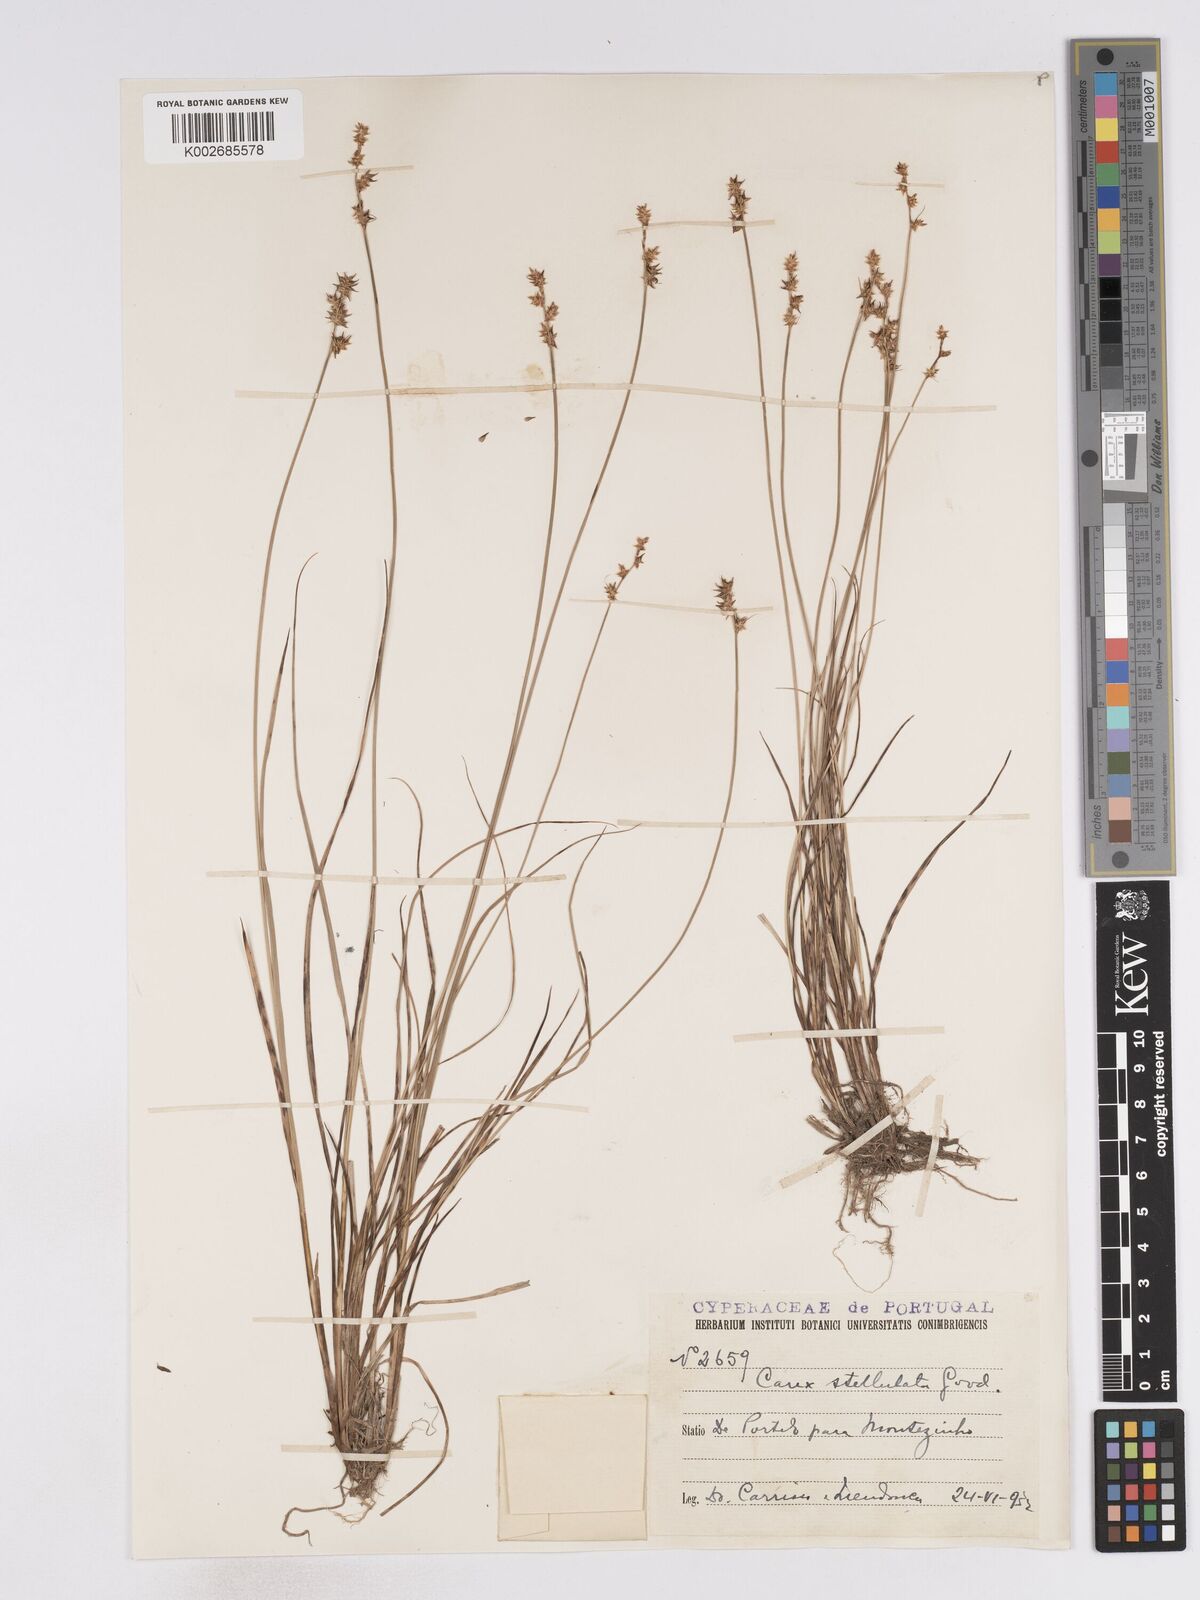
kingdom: Plantae
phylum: Tracheophyta
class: Liliopsida
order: Poales
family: Cyperaceae
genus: Carex
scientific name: Carex echinata
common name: Star sedge
